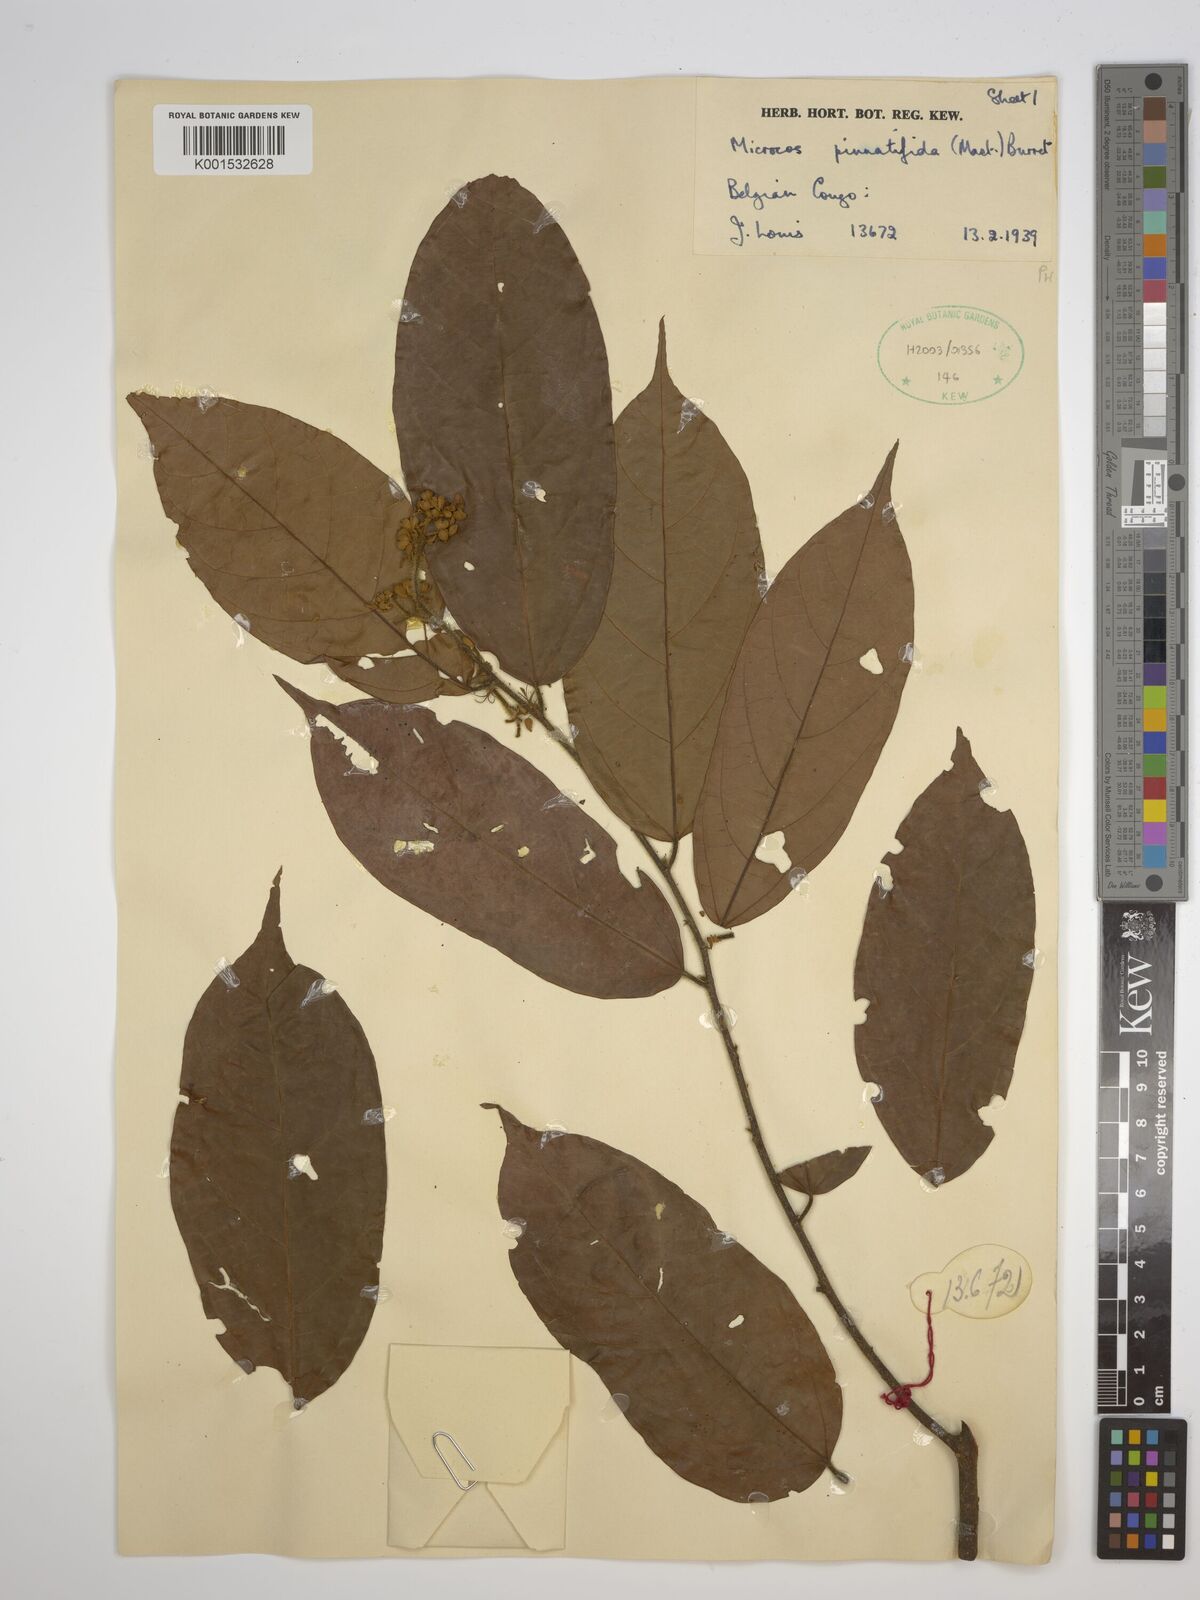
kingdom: Plantae
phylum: Tracheophyta
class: Magnoliopsida
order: Malvales
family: Malvaceae
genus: Microcos
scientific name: Microcos pinnatifida
